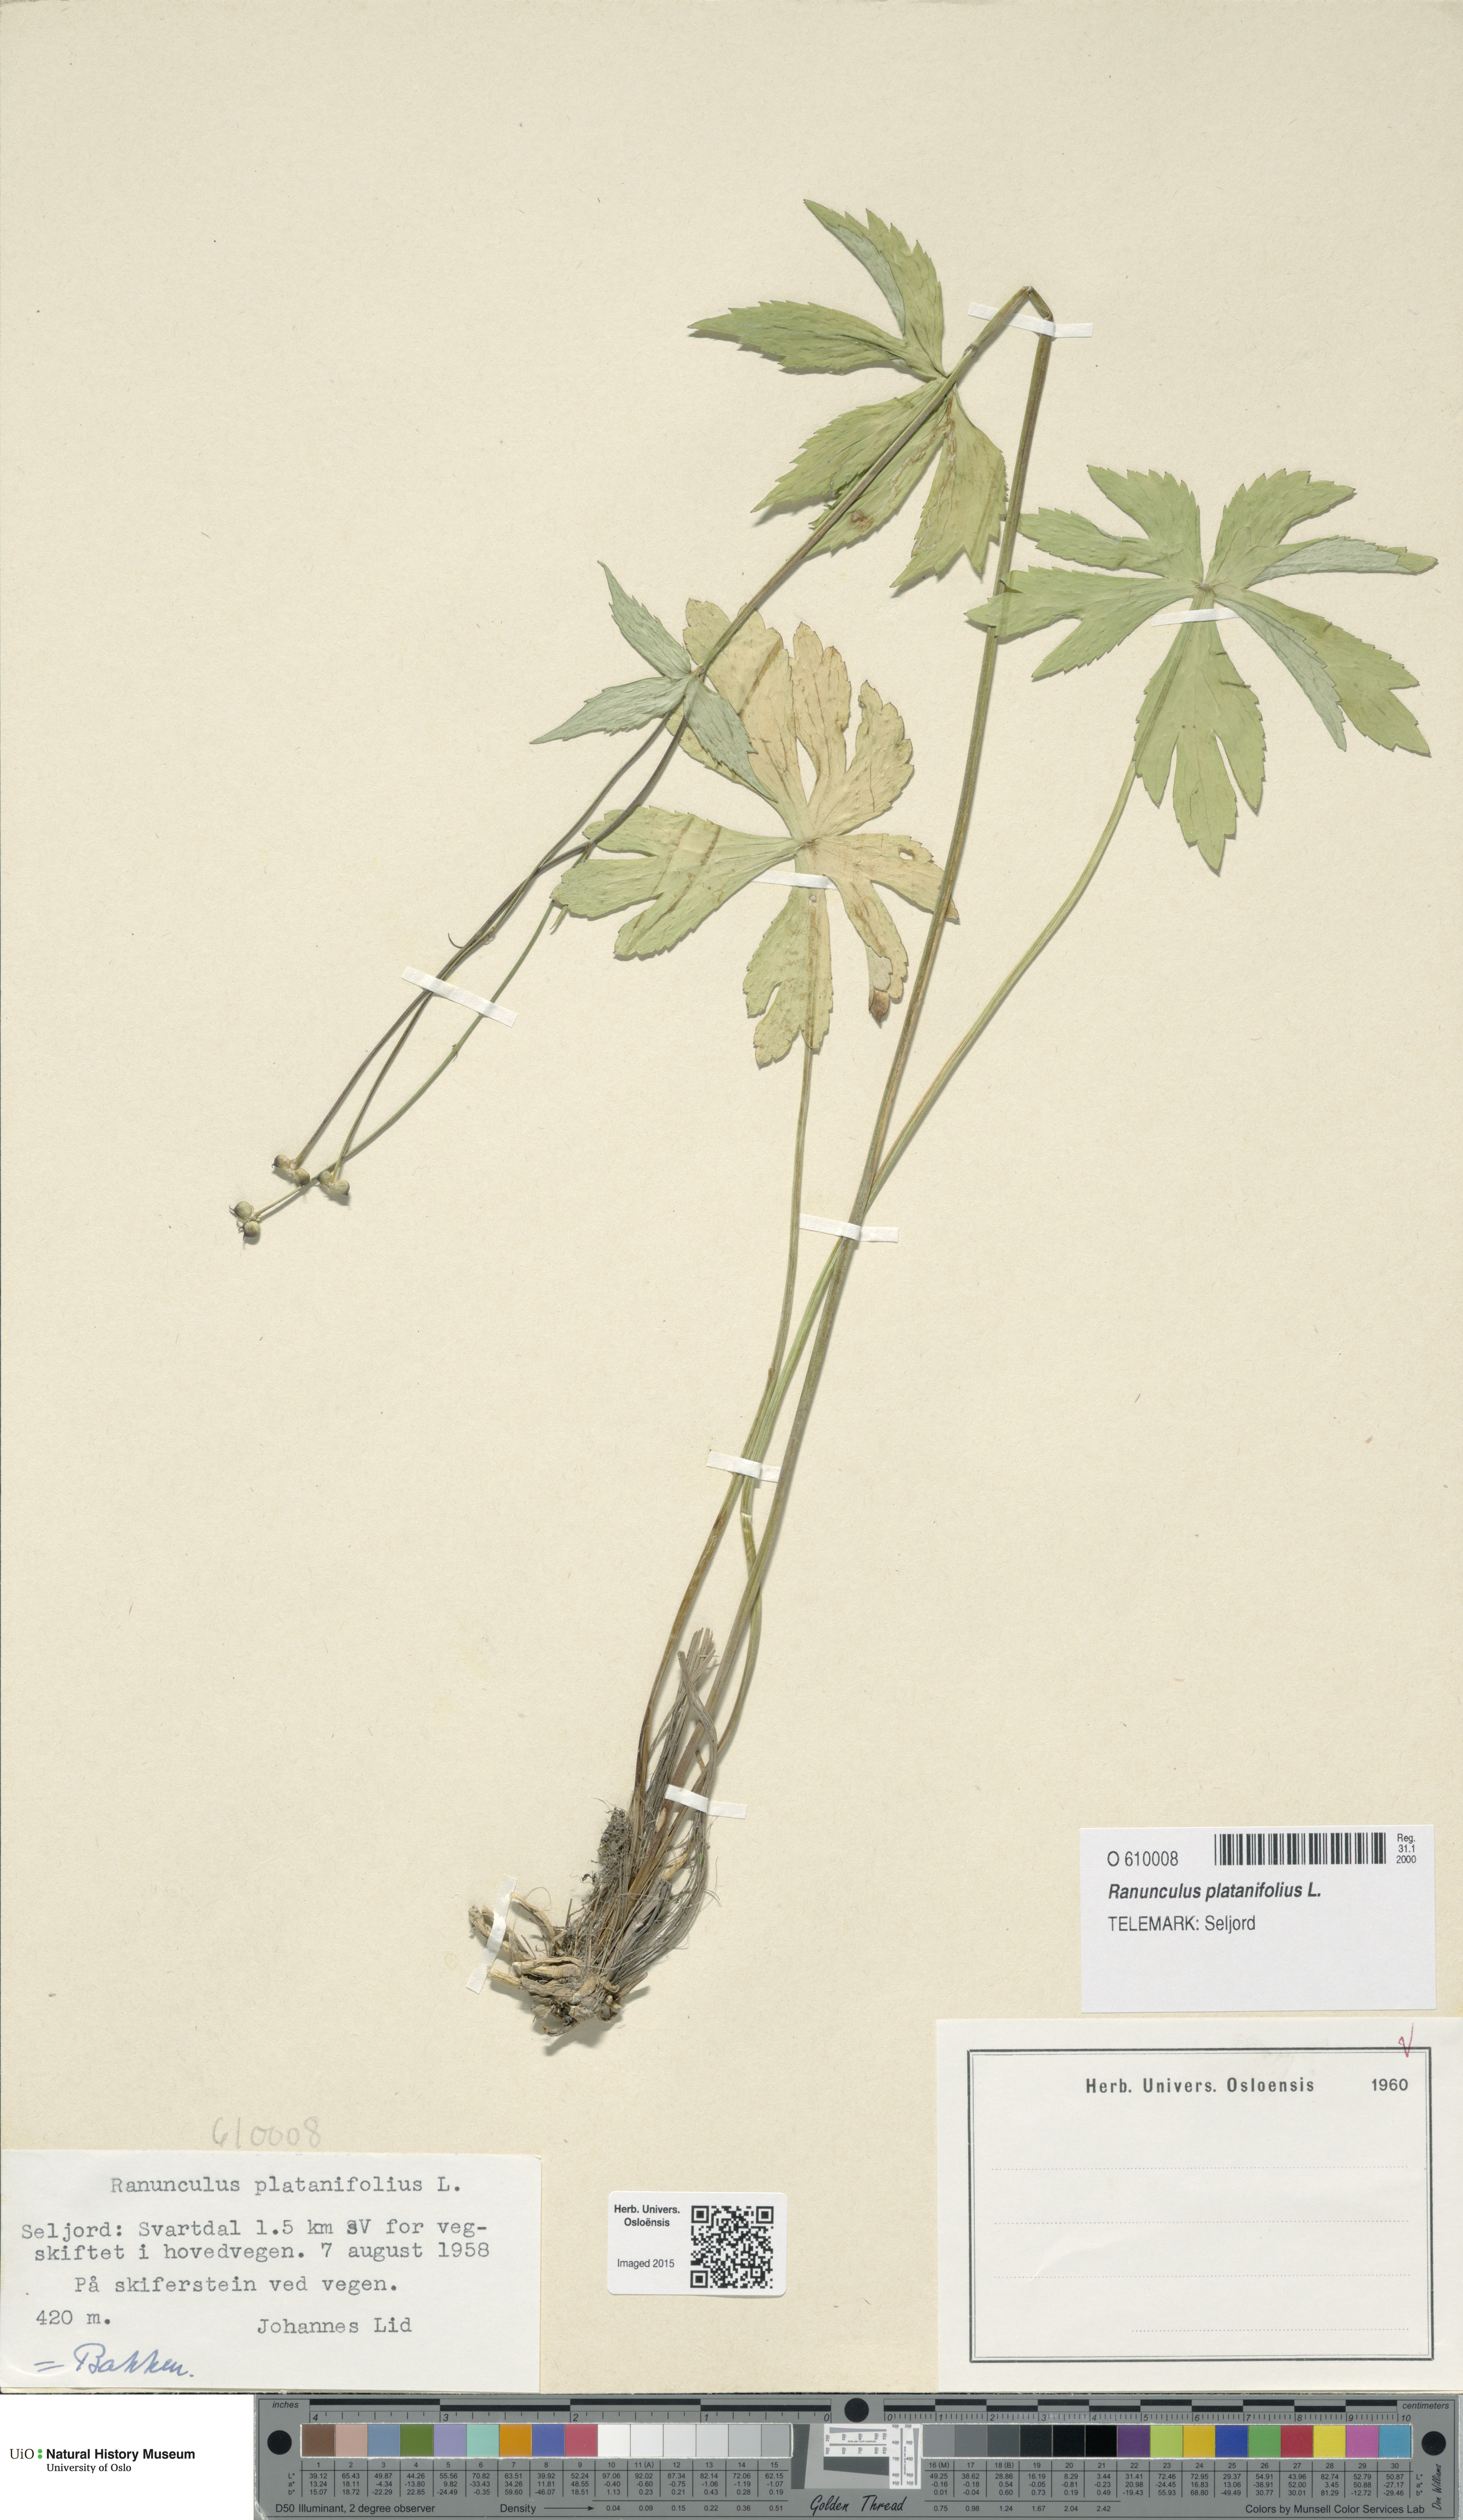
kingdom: Plantae
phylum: Tracheophyta
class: Magnoliopsida
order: Ranunculales
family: Ranunculaceae
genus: Ranunculus
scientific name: Ranunculus platanifolius
